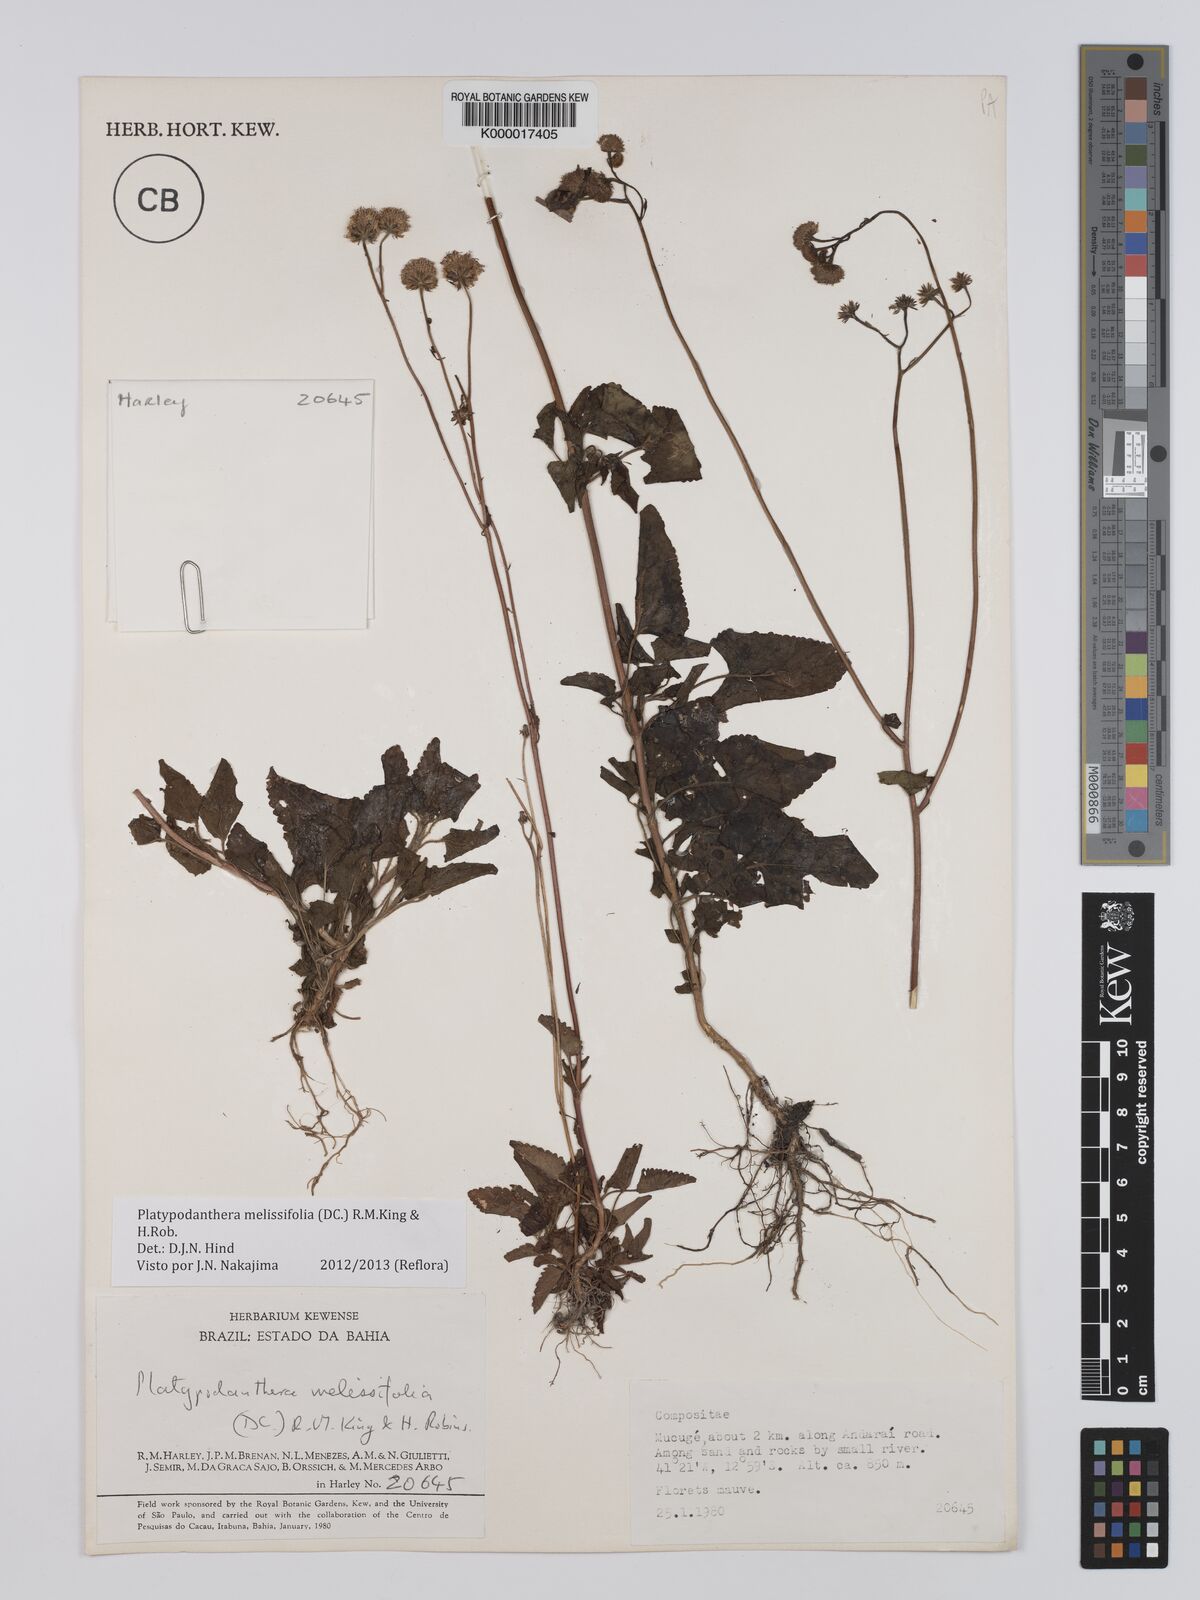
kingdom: Plantae
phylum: Tracheophyta
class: Magnoliopsida
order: Asterales
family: Asteraceae
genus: Platypodanthera
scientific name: Platypodanthera melissifolia
